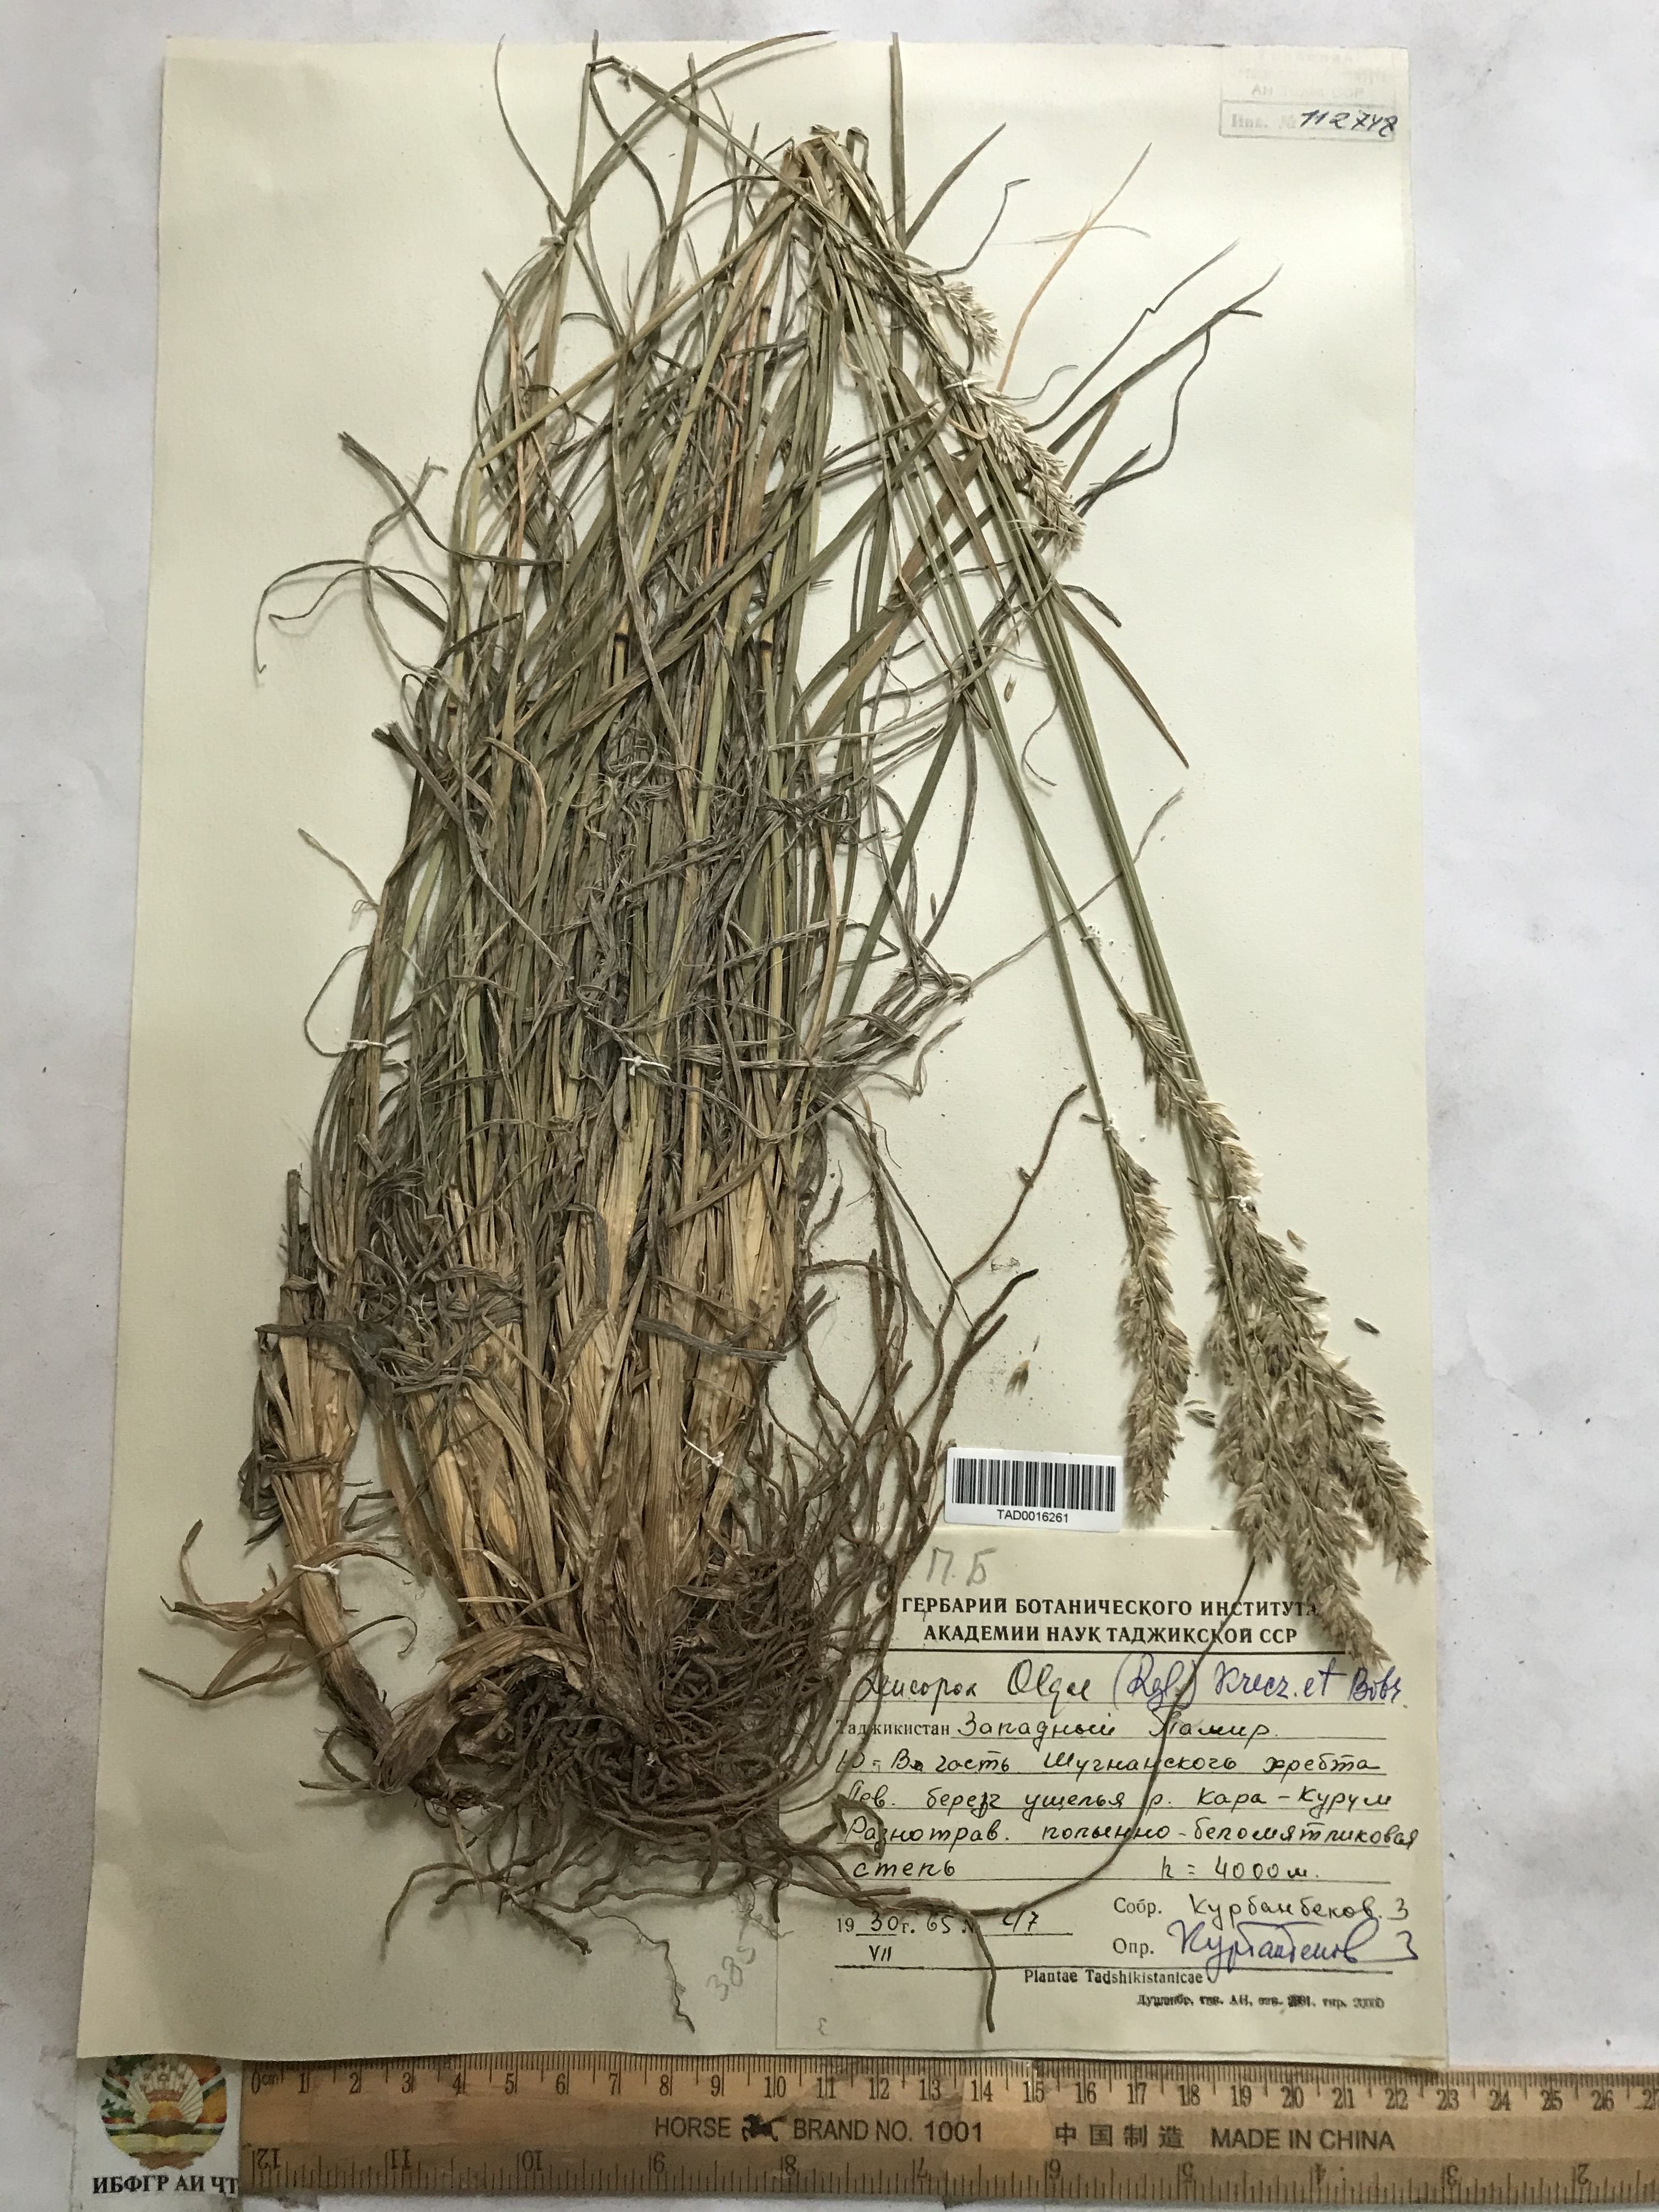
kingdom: Plantae
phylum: Tracheophyta
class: Liliopsida
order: Poales
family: Poaceae
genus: Festuca
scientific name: Festuca
